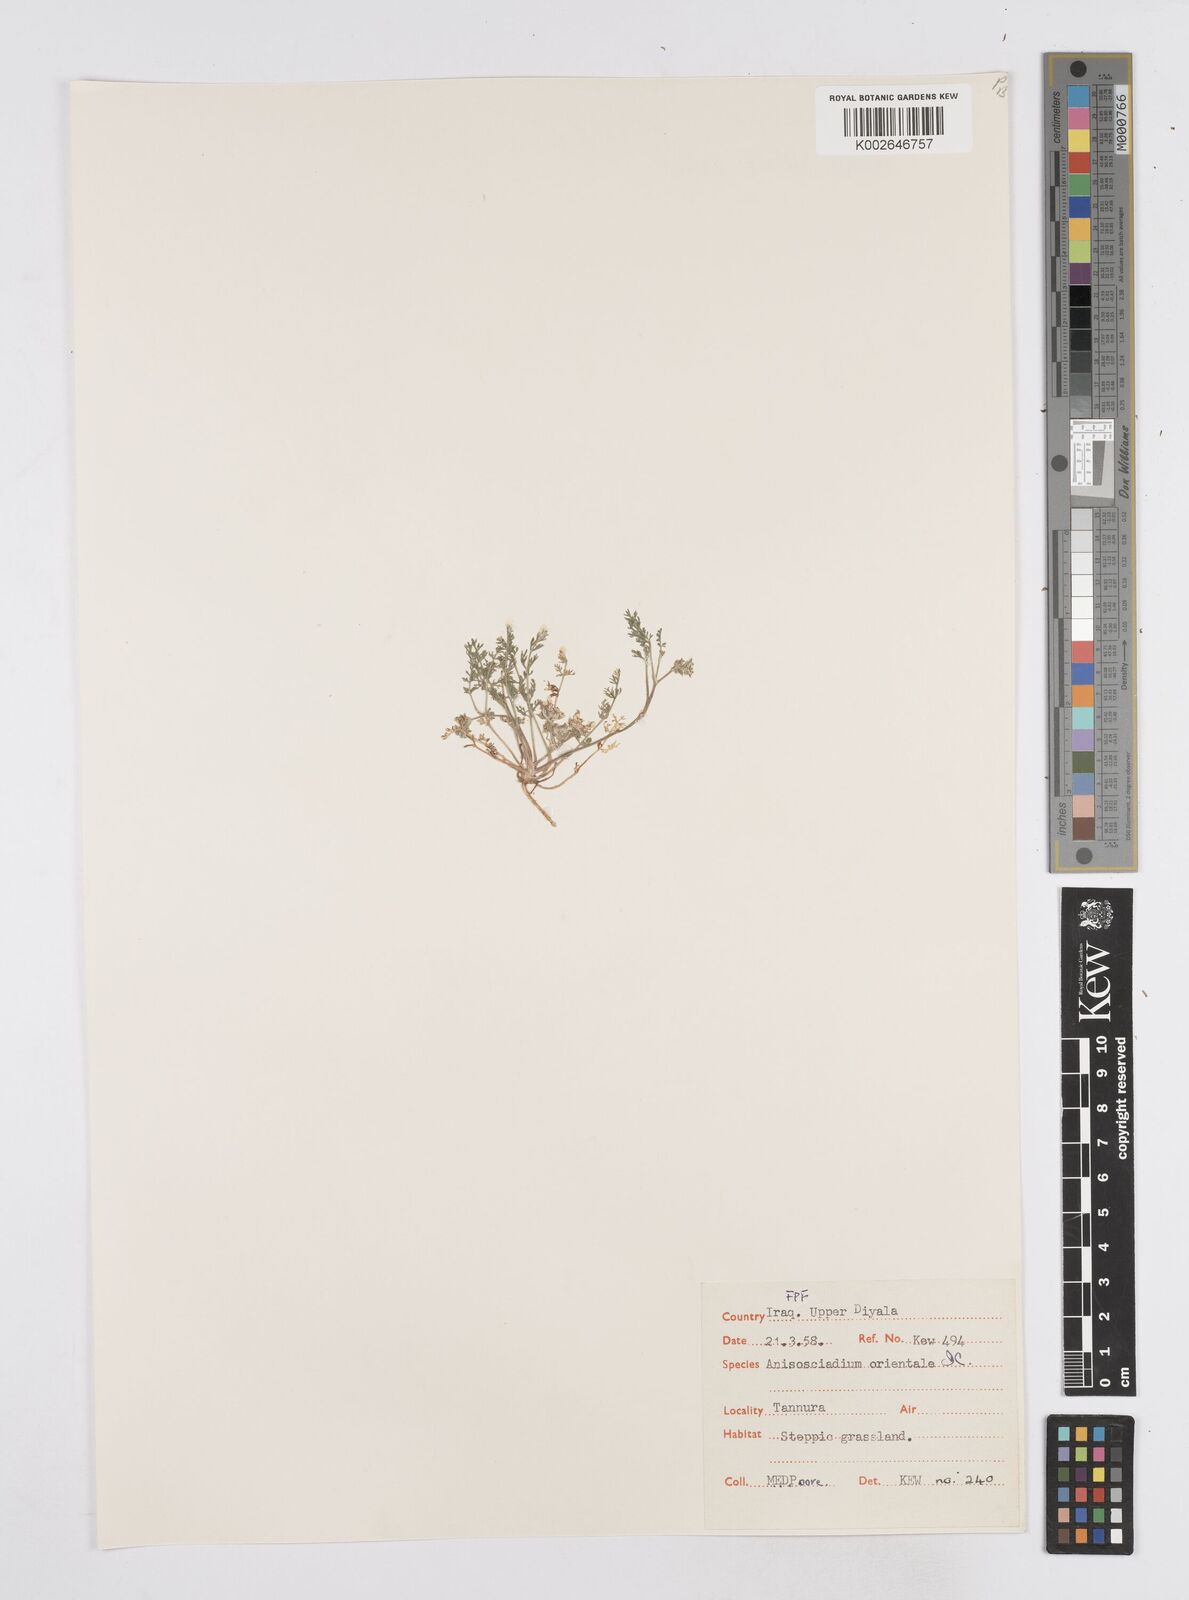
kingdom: Plantae
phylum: Tracheophyta
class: Magnoliopsida
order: Apiales
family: Apiaceae
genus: Anisosciadium
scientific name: Anisosciadium orientale
